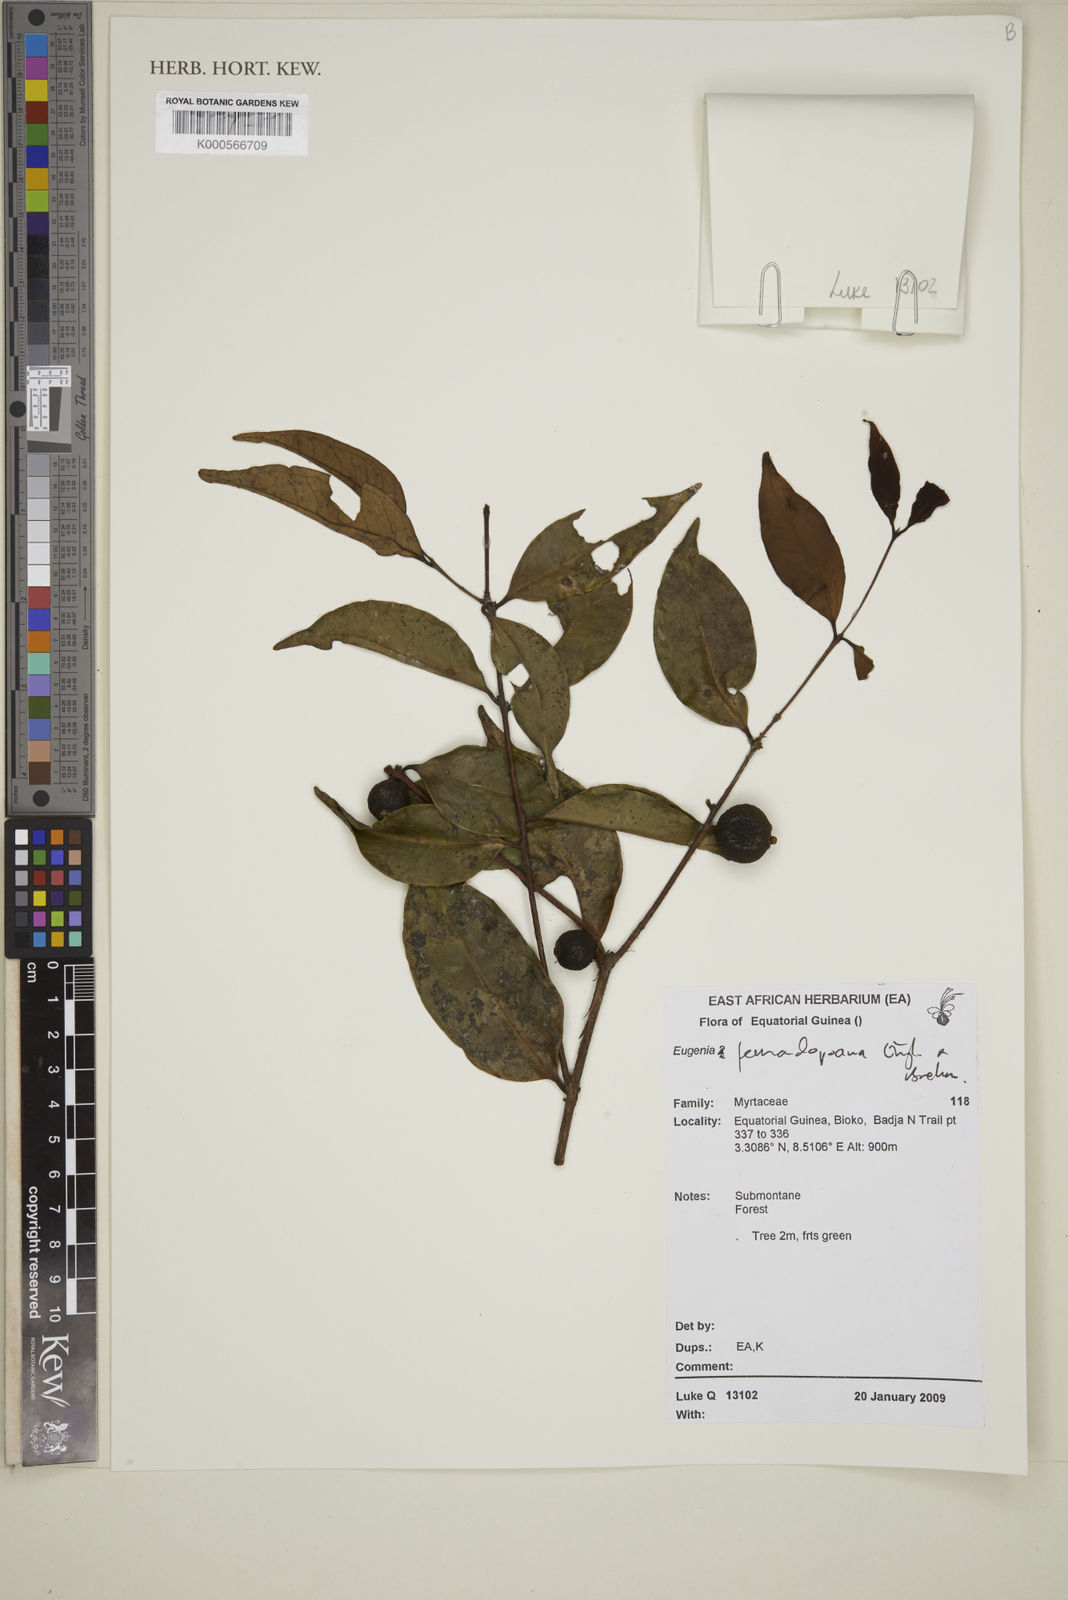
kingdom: Plantae
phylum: Tracheophyta
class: Magnoliopsida
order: Myrtales
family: Myrtaceae
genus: Eugenia
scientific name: Eugenia fernandopoana
